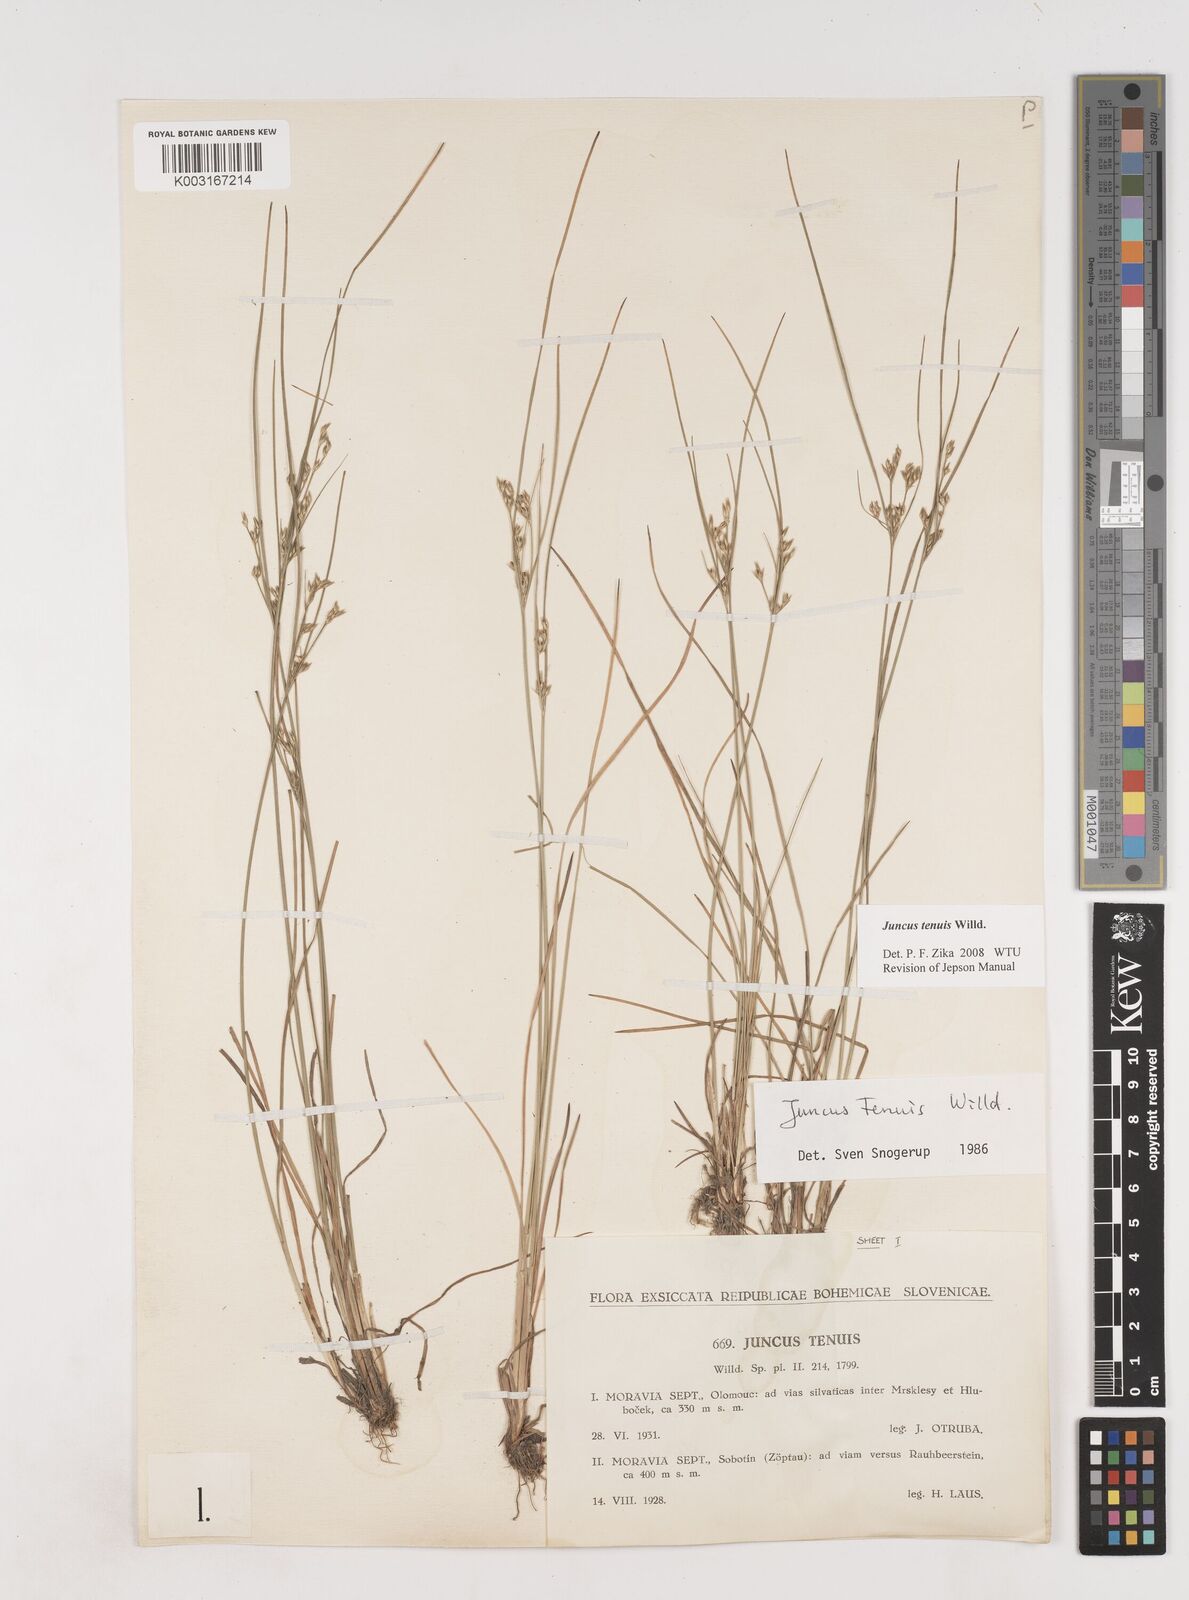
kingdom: Plantae
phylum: Tracheophyta
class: Liliopsida
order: Poales
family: Juncaceae
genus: Juncus
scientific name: Juncus tenuis
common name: Slender rush
